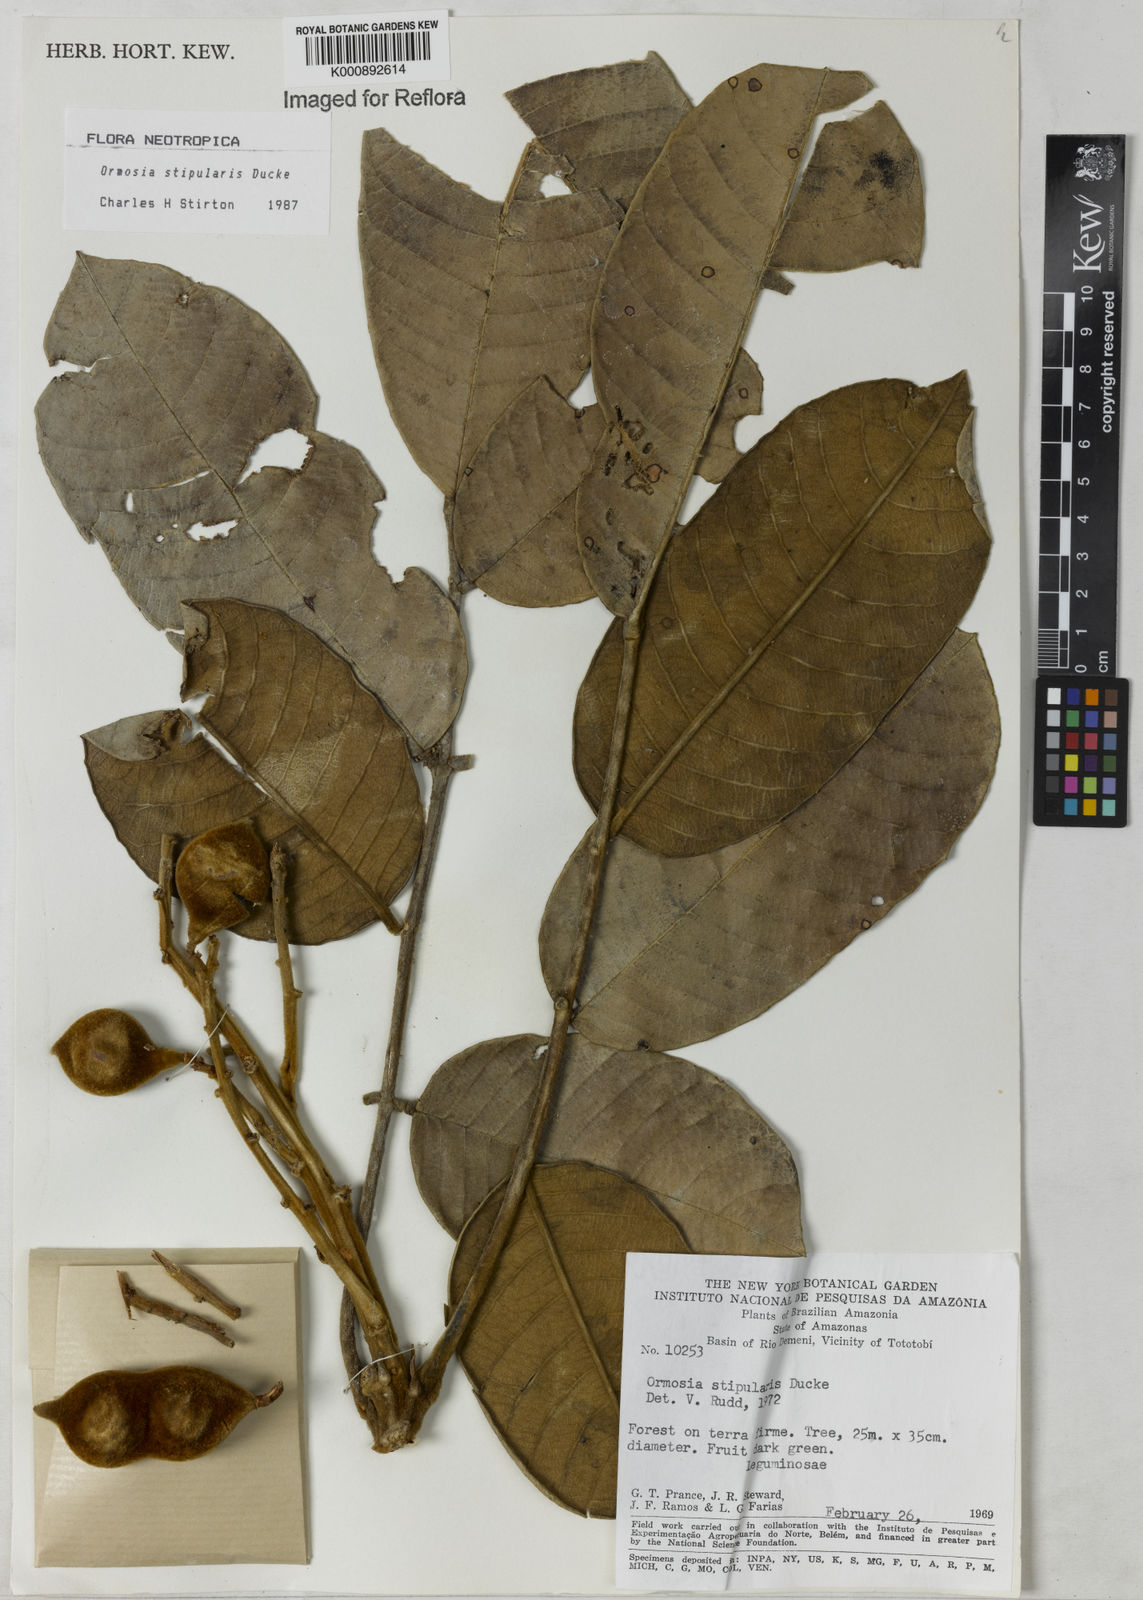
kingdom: Plantae
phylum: Tracheophyta
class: Magnoliopsida
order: Fabales
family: Fabaceae
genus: Ormosia
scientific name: Ormosia stipularis
